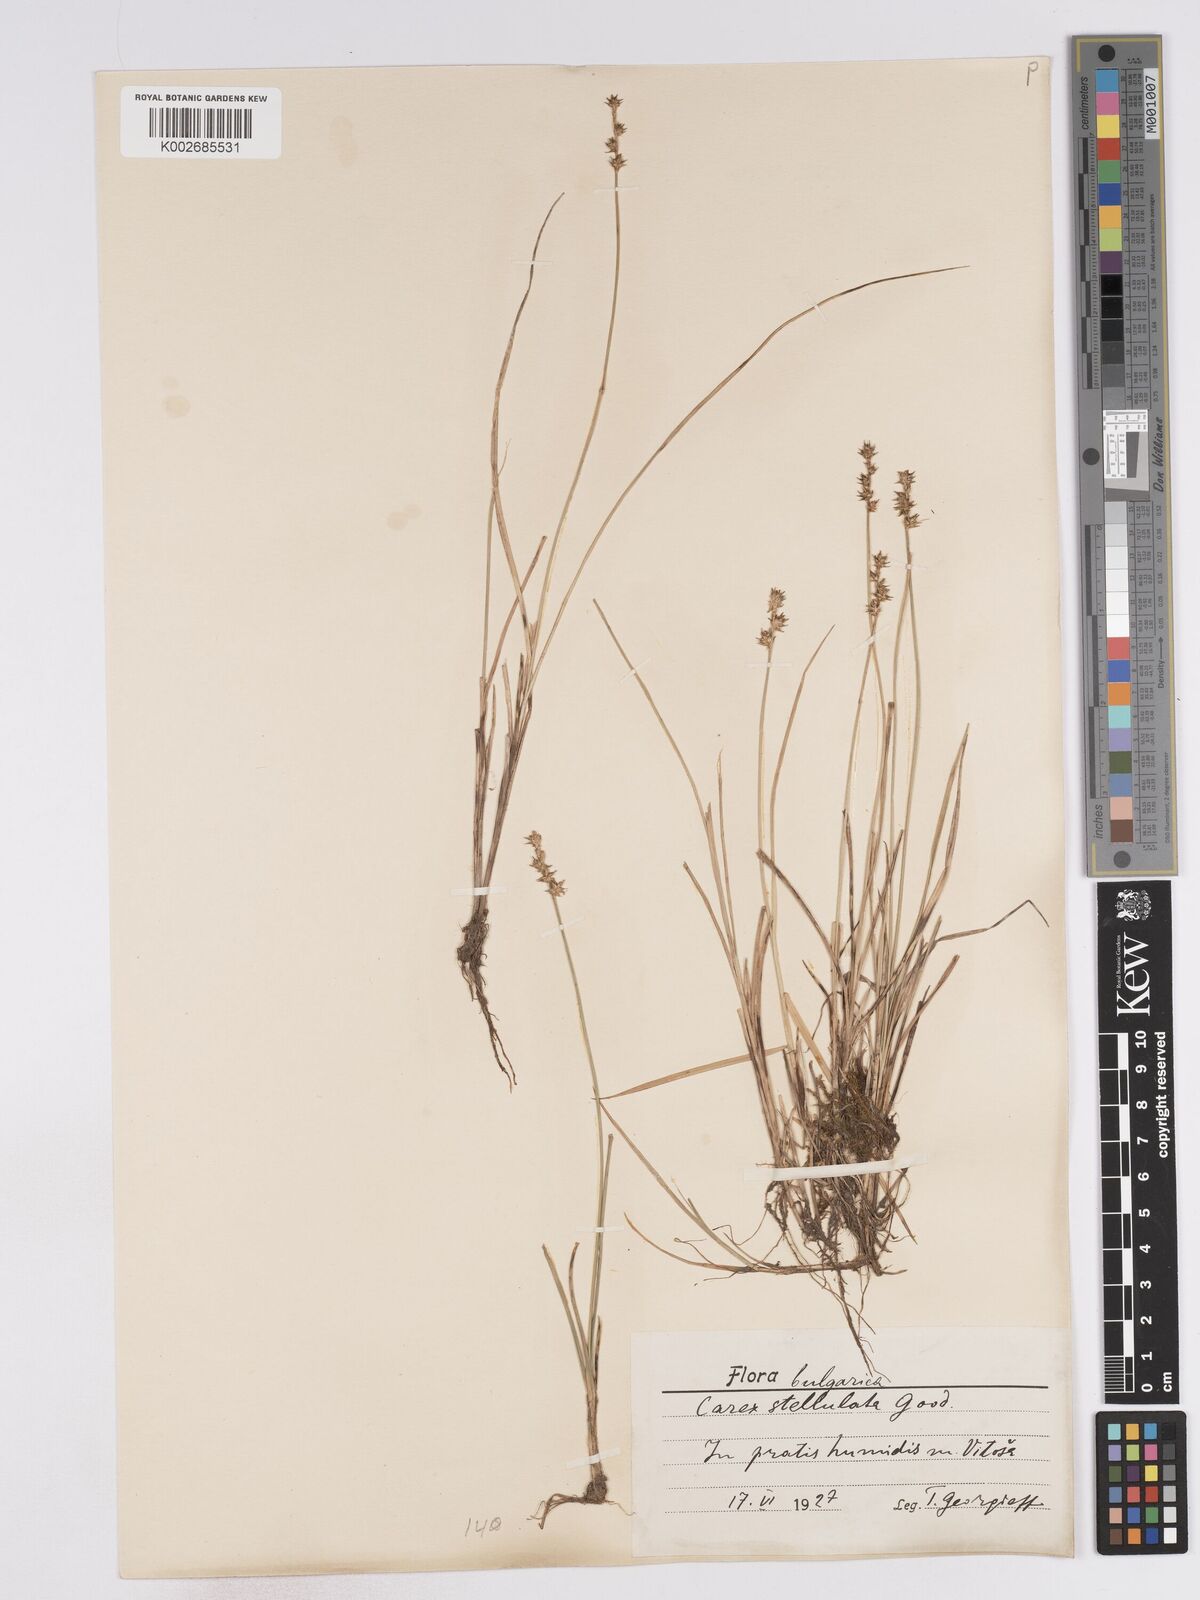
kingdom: Plantae
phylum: Tracheophyta
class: Liliopsida
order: Poales
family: Cyperaceae
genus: Carex
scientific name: Carex echinata
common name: Star sedge
